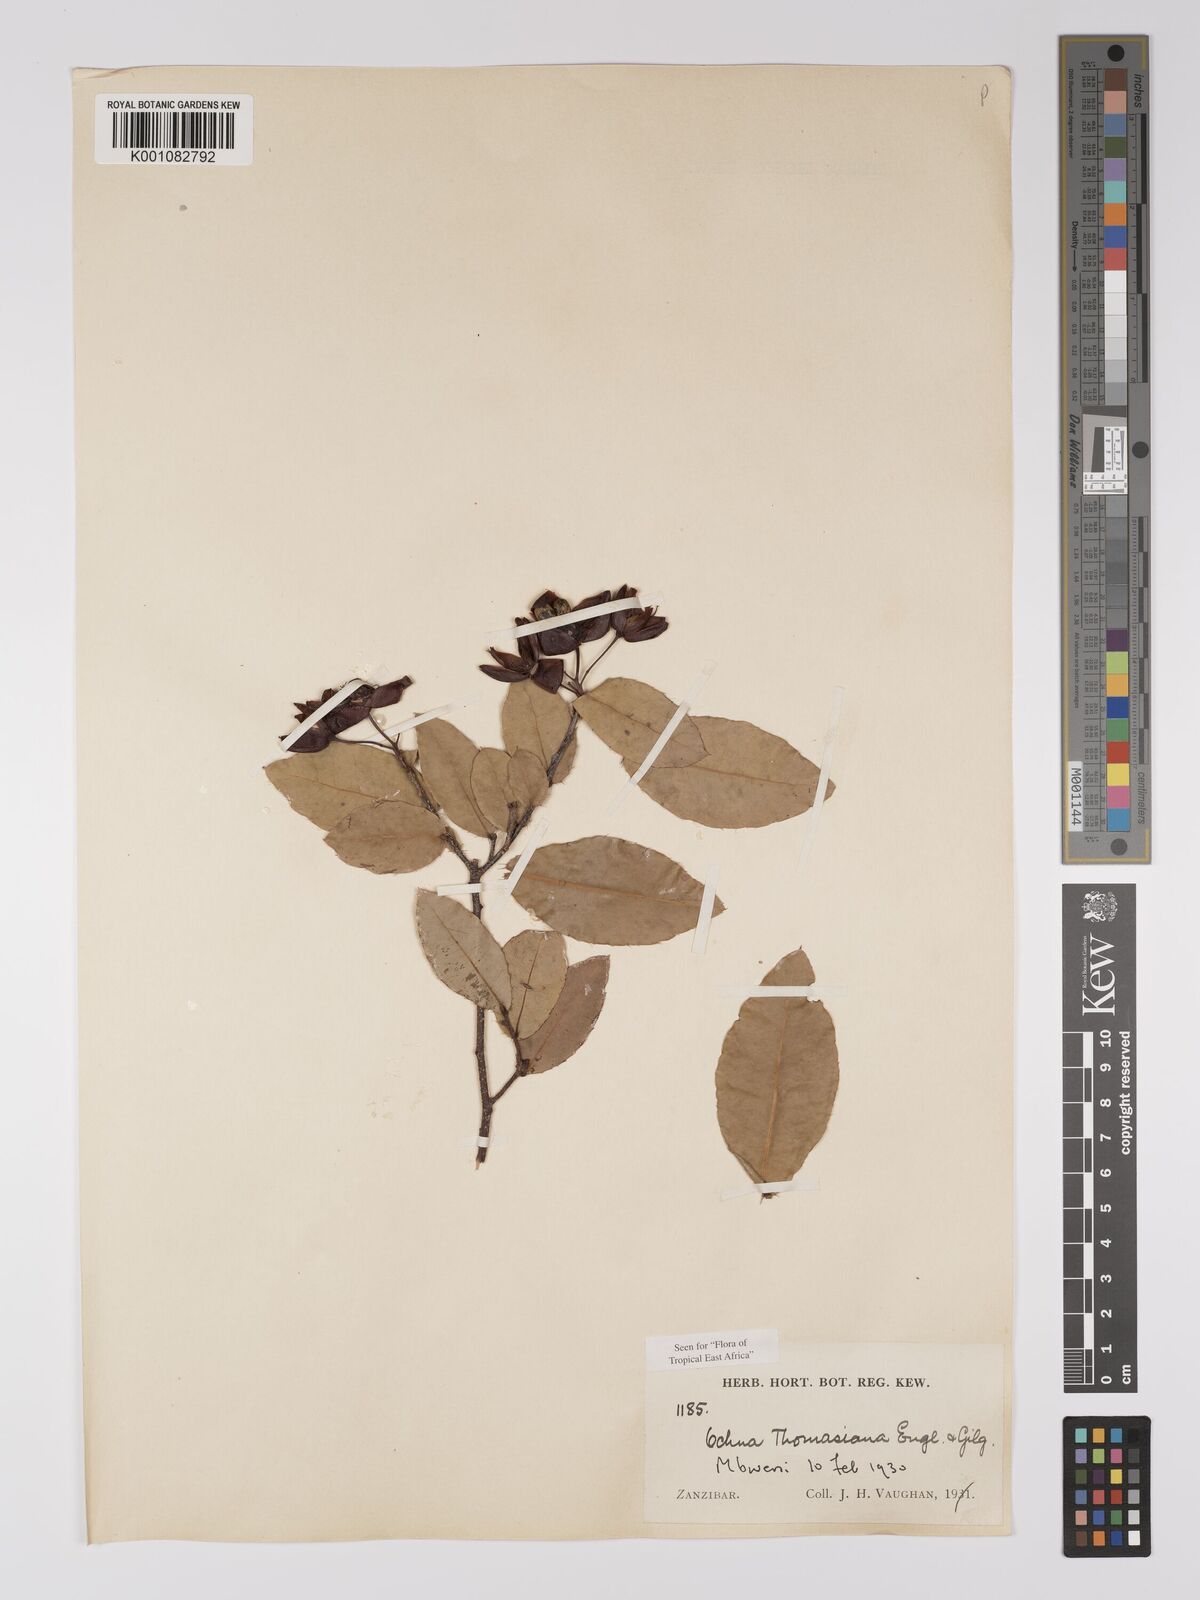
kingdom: Plantae
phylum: Tracheophyta
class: Magnoliopsida
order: Malpighiales
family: Ochnaceae
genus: Ochna
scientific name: Ochna thomasiana
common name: Thomas' bird's-eye bush
